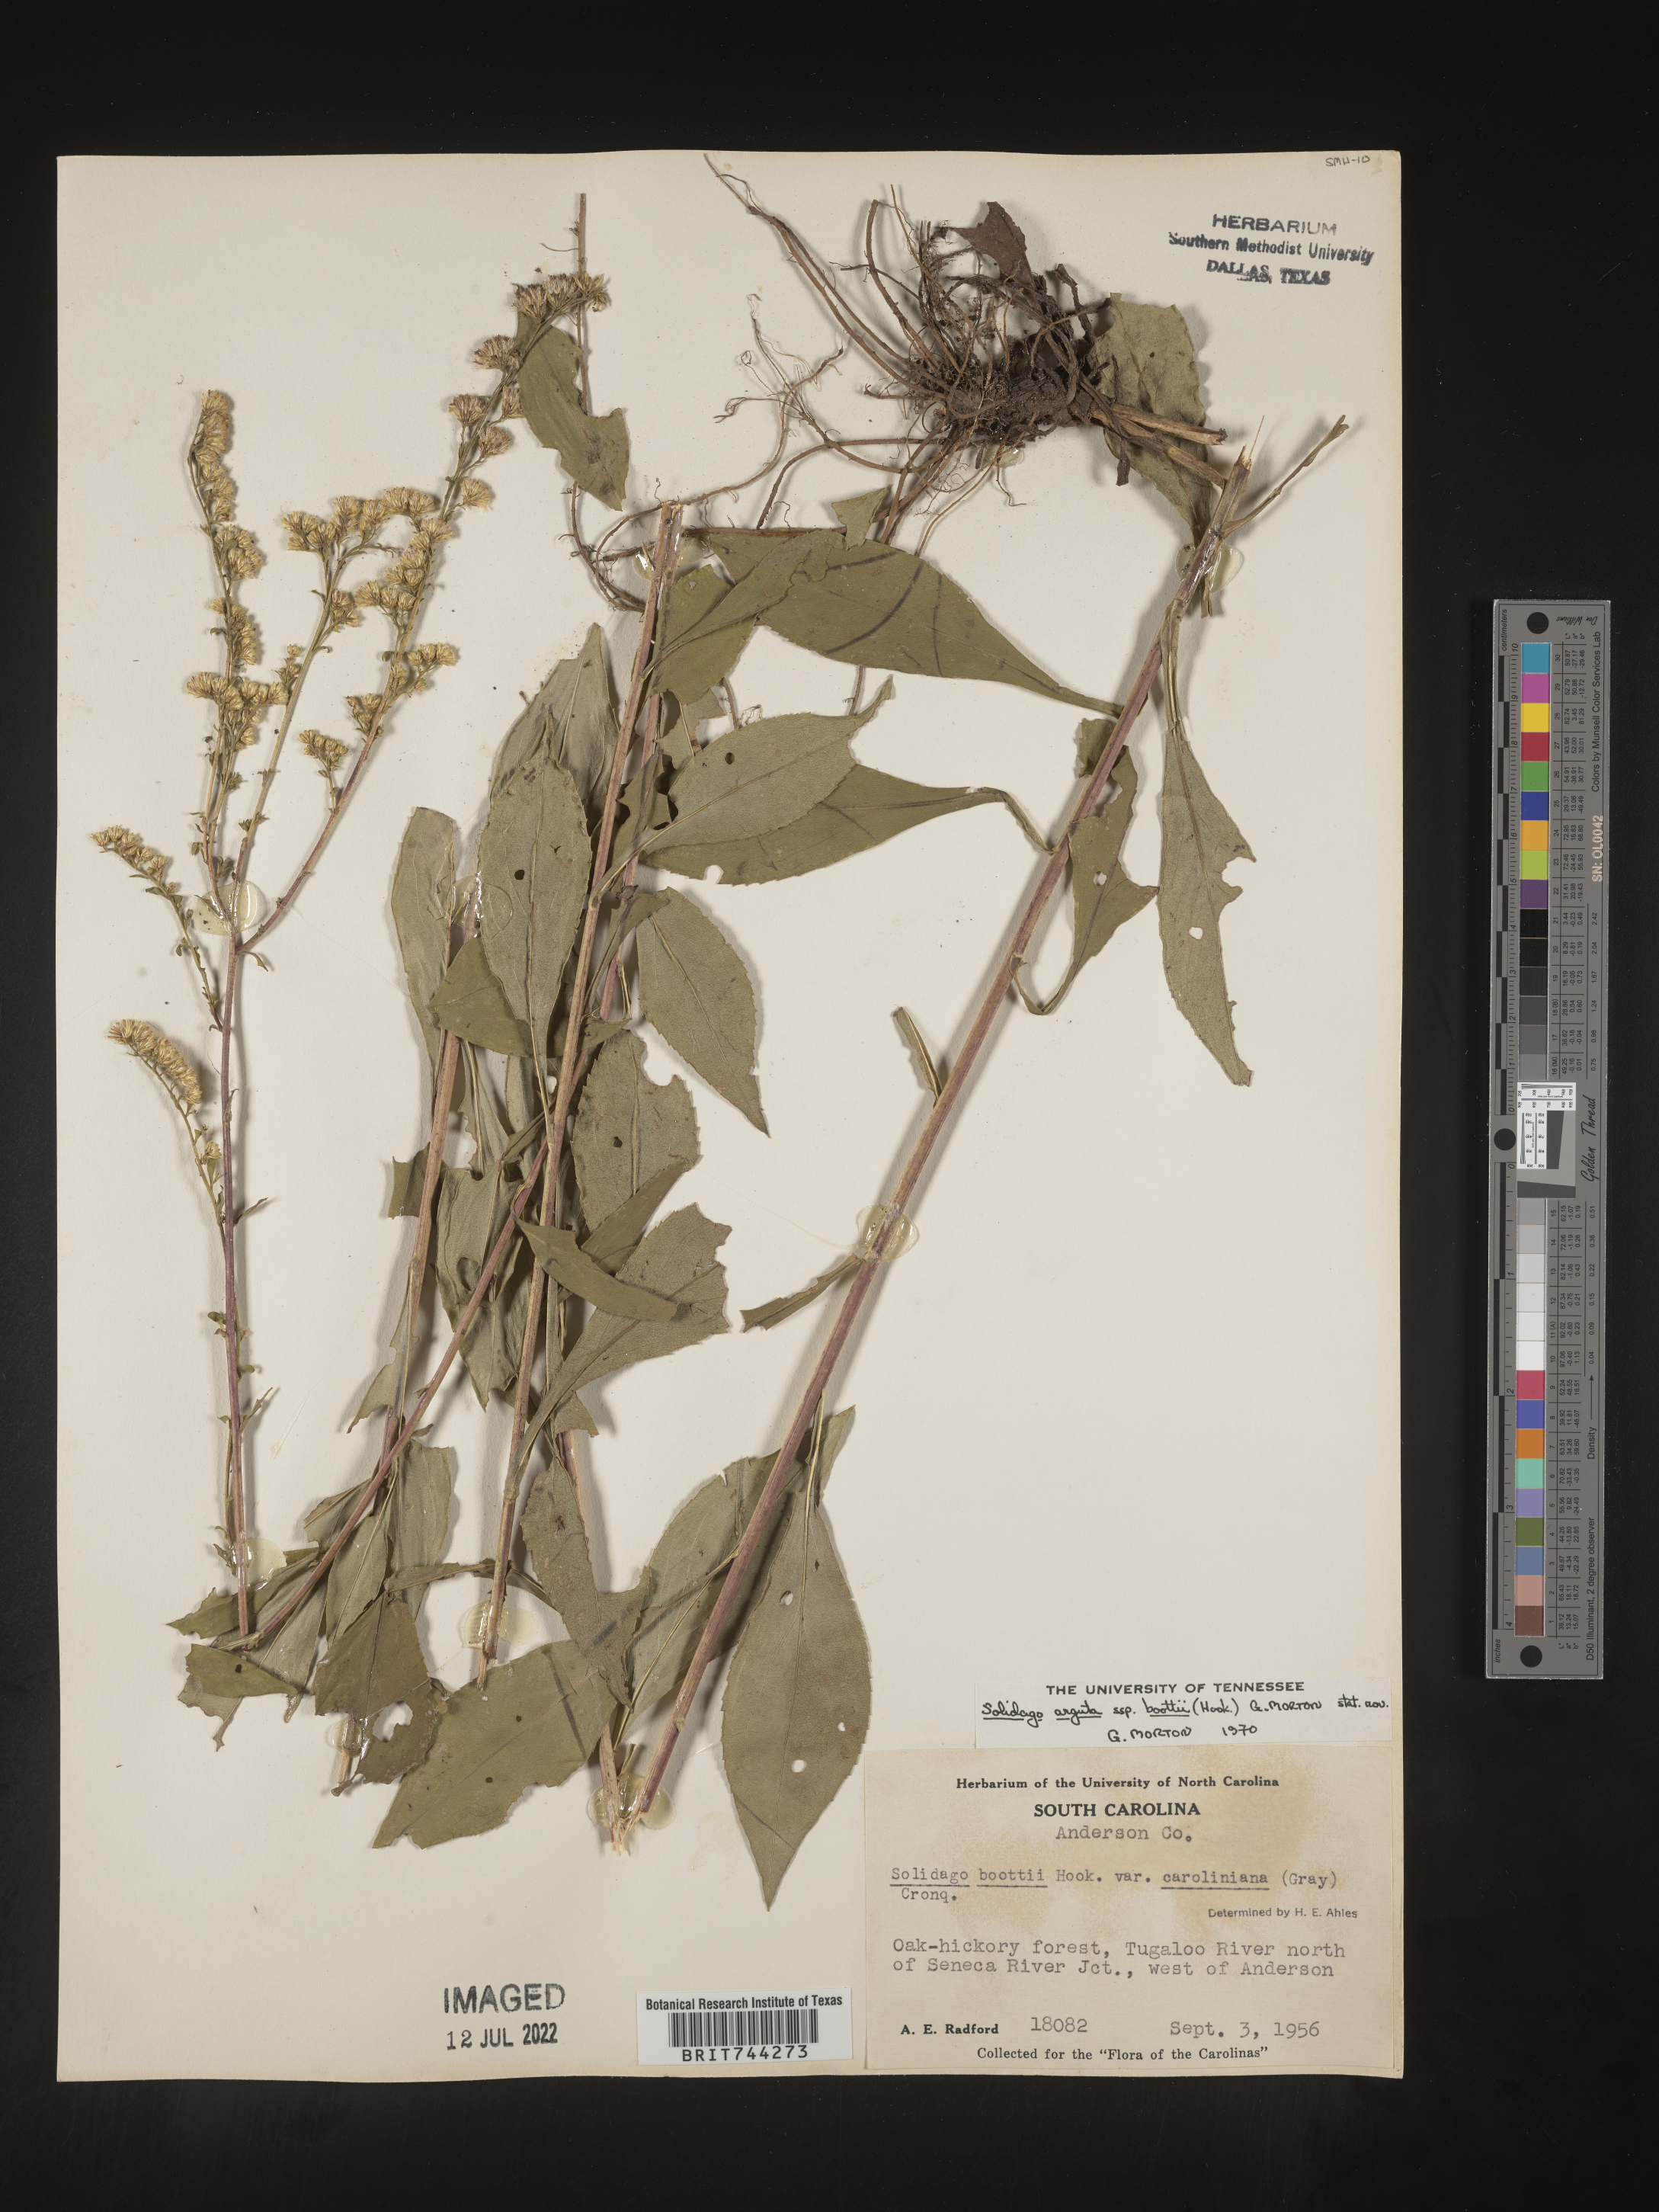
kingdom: Plantae
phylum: Tracheophyta
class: Magnoliopsida
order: Asterales
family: Asteraceae
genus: Solidago
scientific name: Solidago vaseyi
